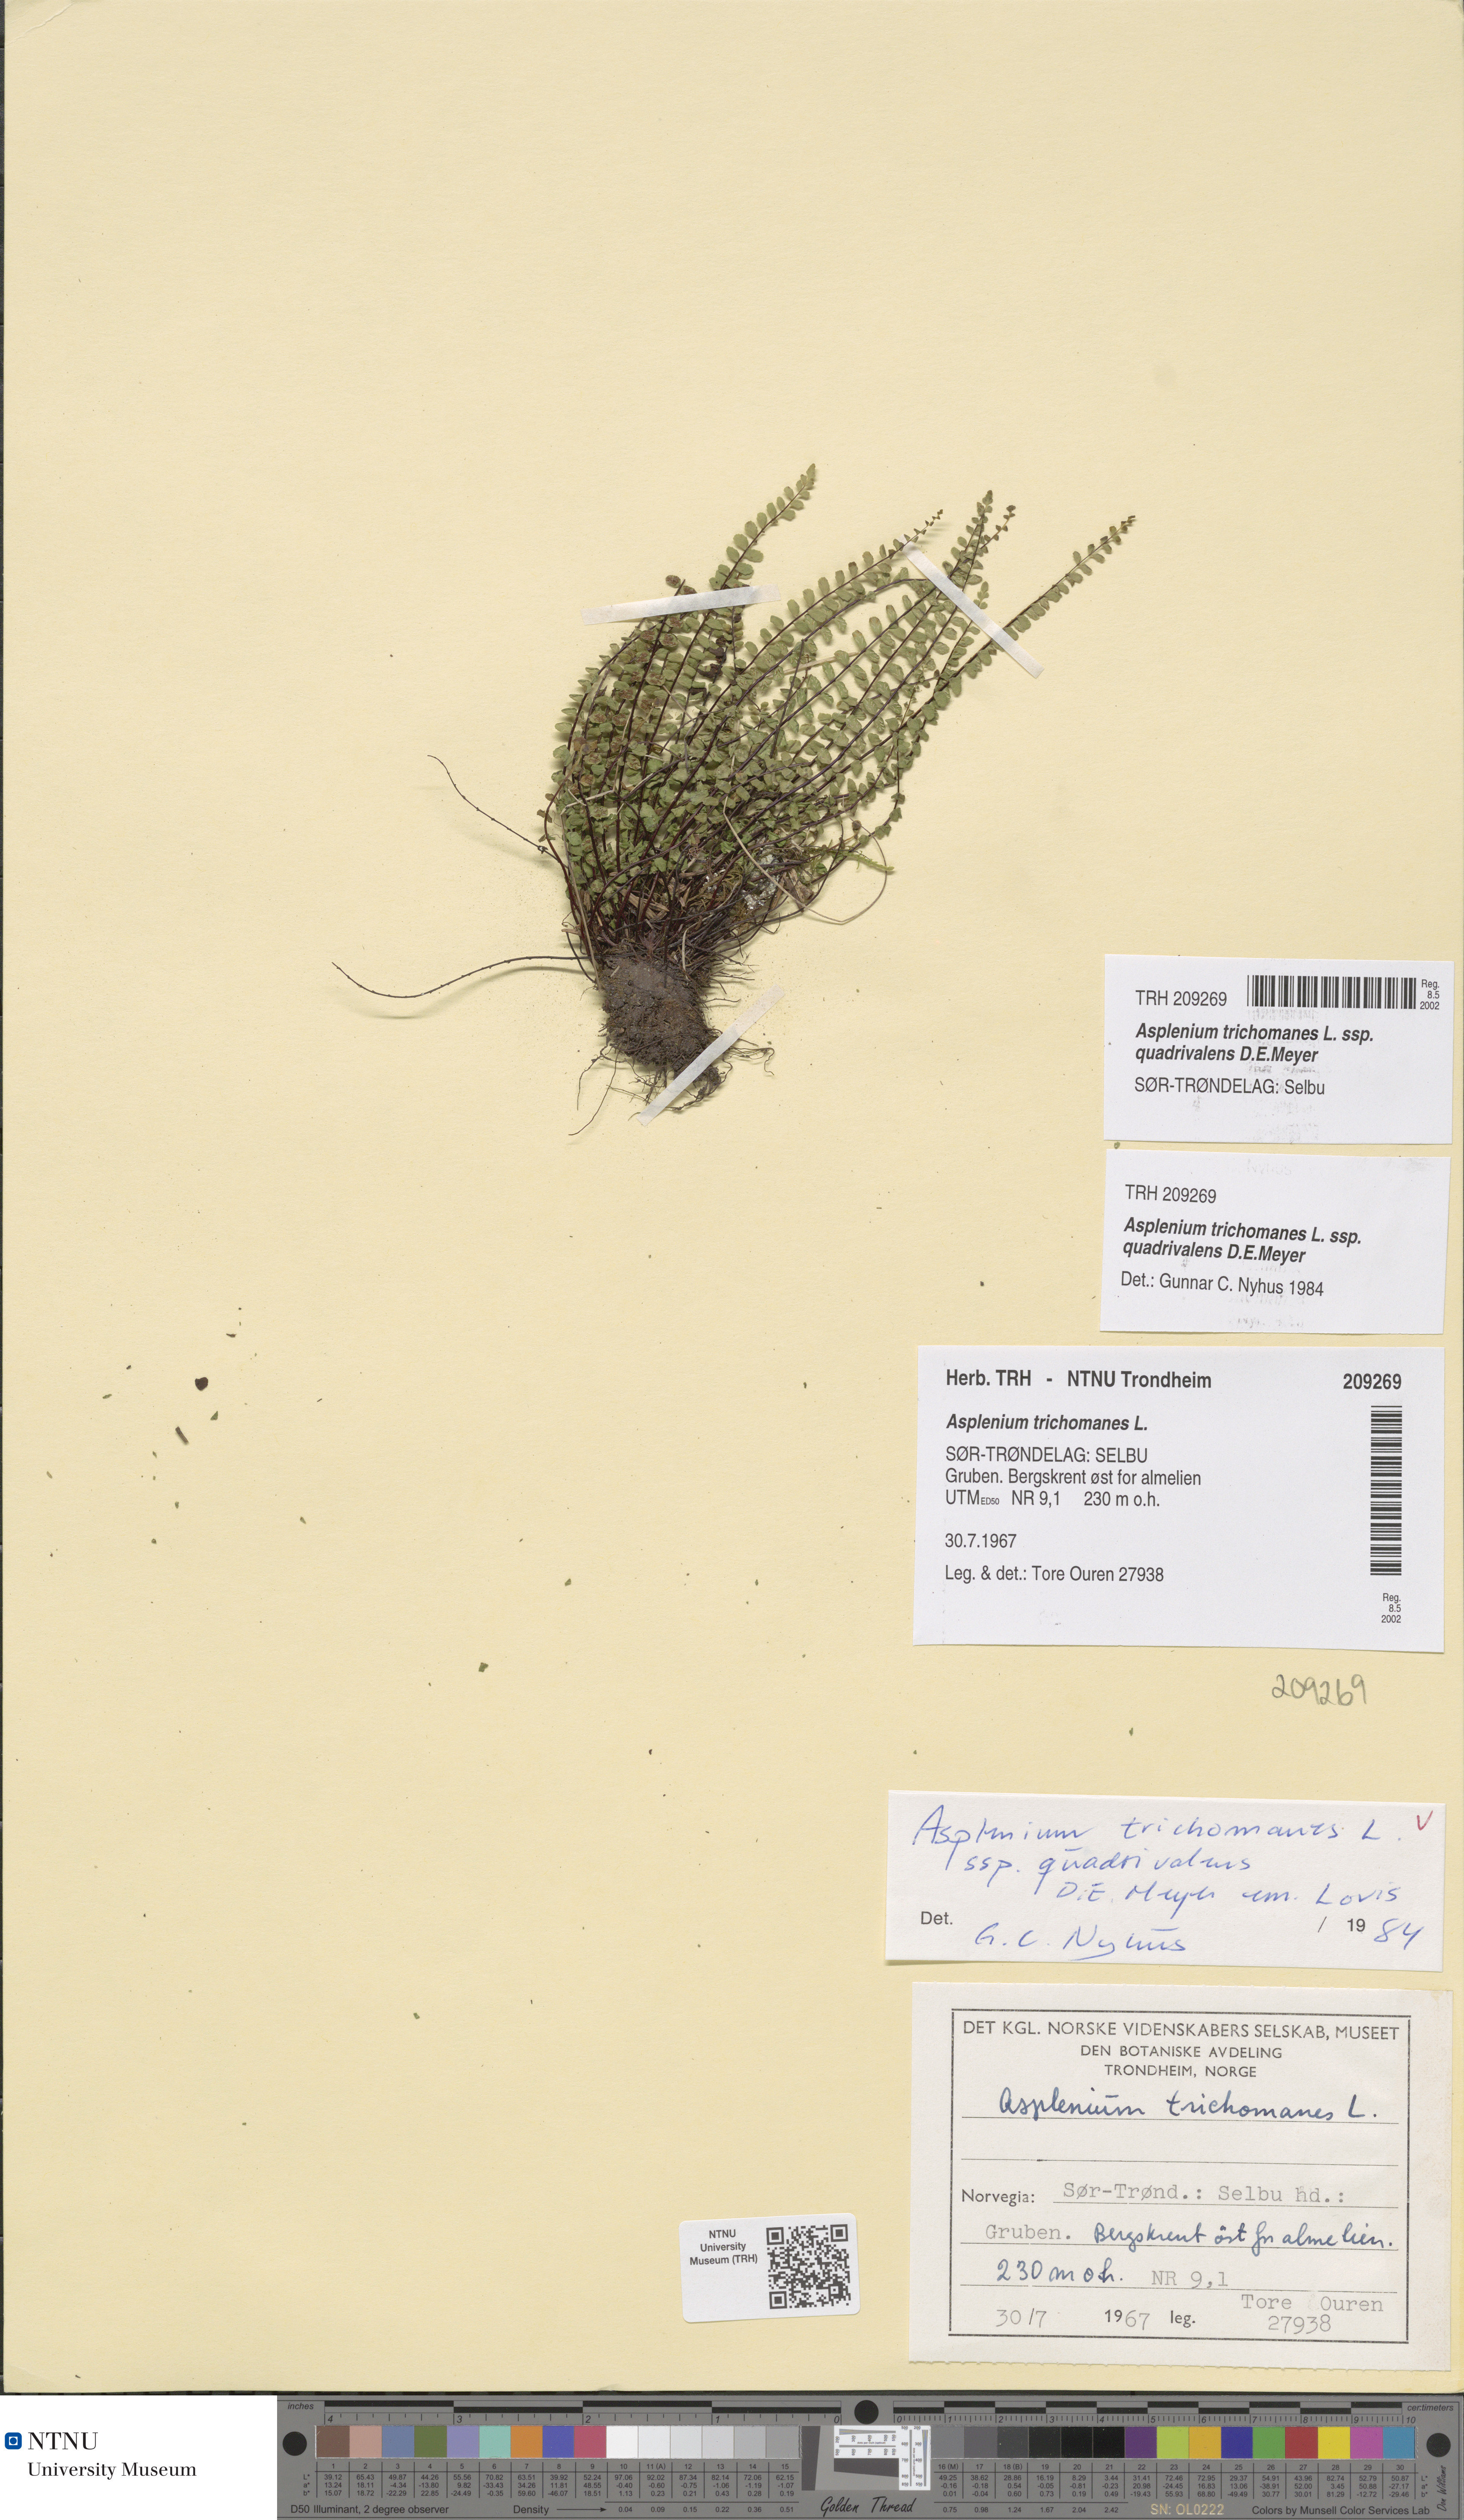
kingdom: Plantae
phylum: Tracheophyta
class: Polypodiopsida
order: Polypodiales
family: Aspleniaceae
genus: Asplenium
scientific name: Asplenium quadrivalens
